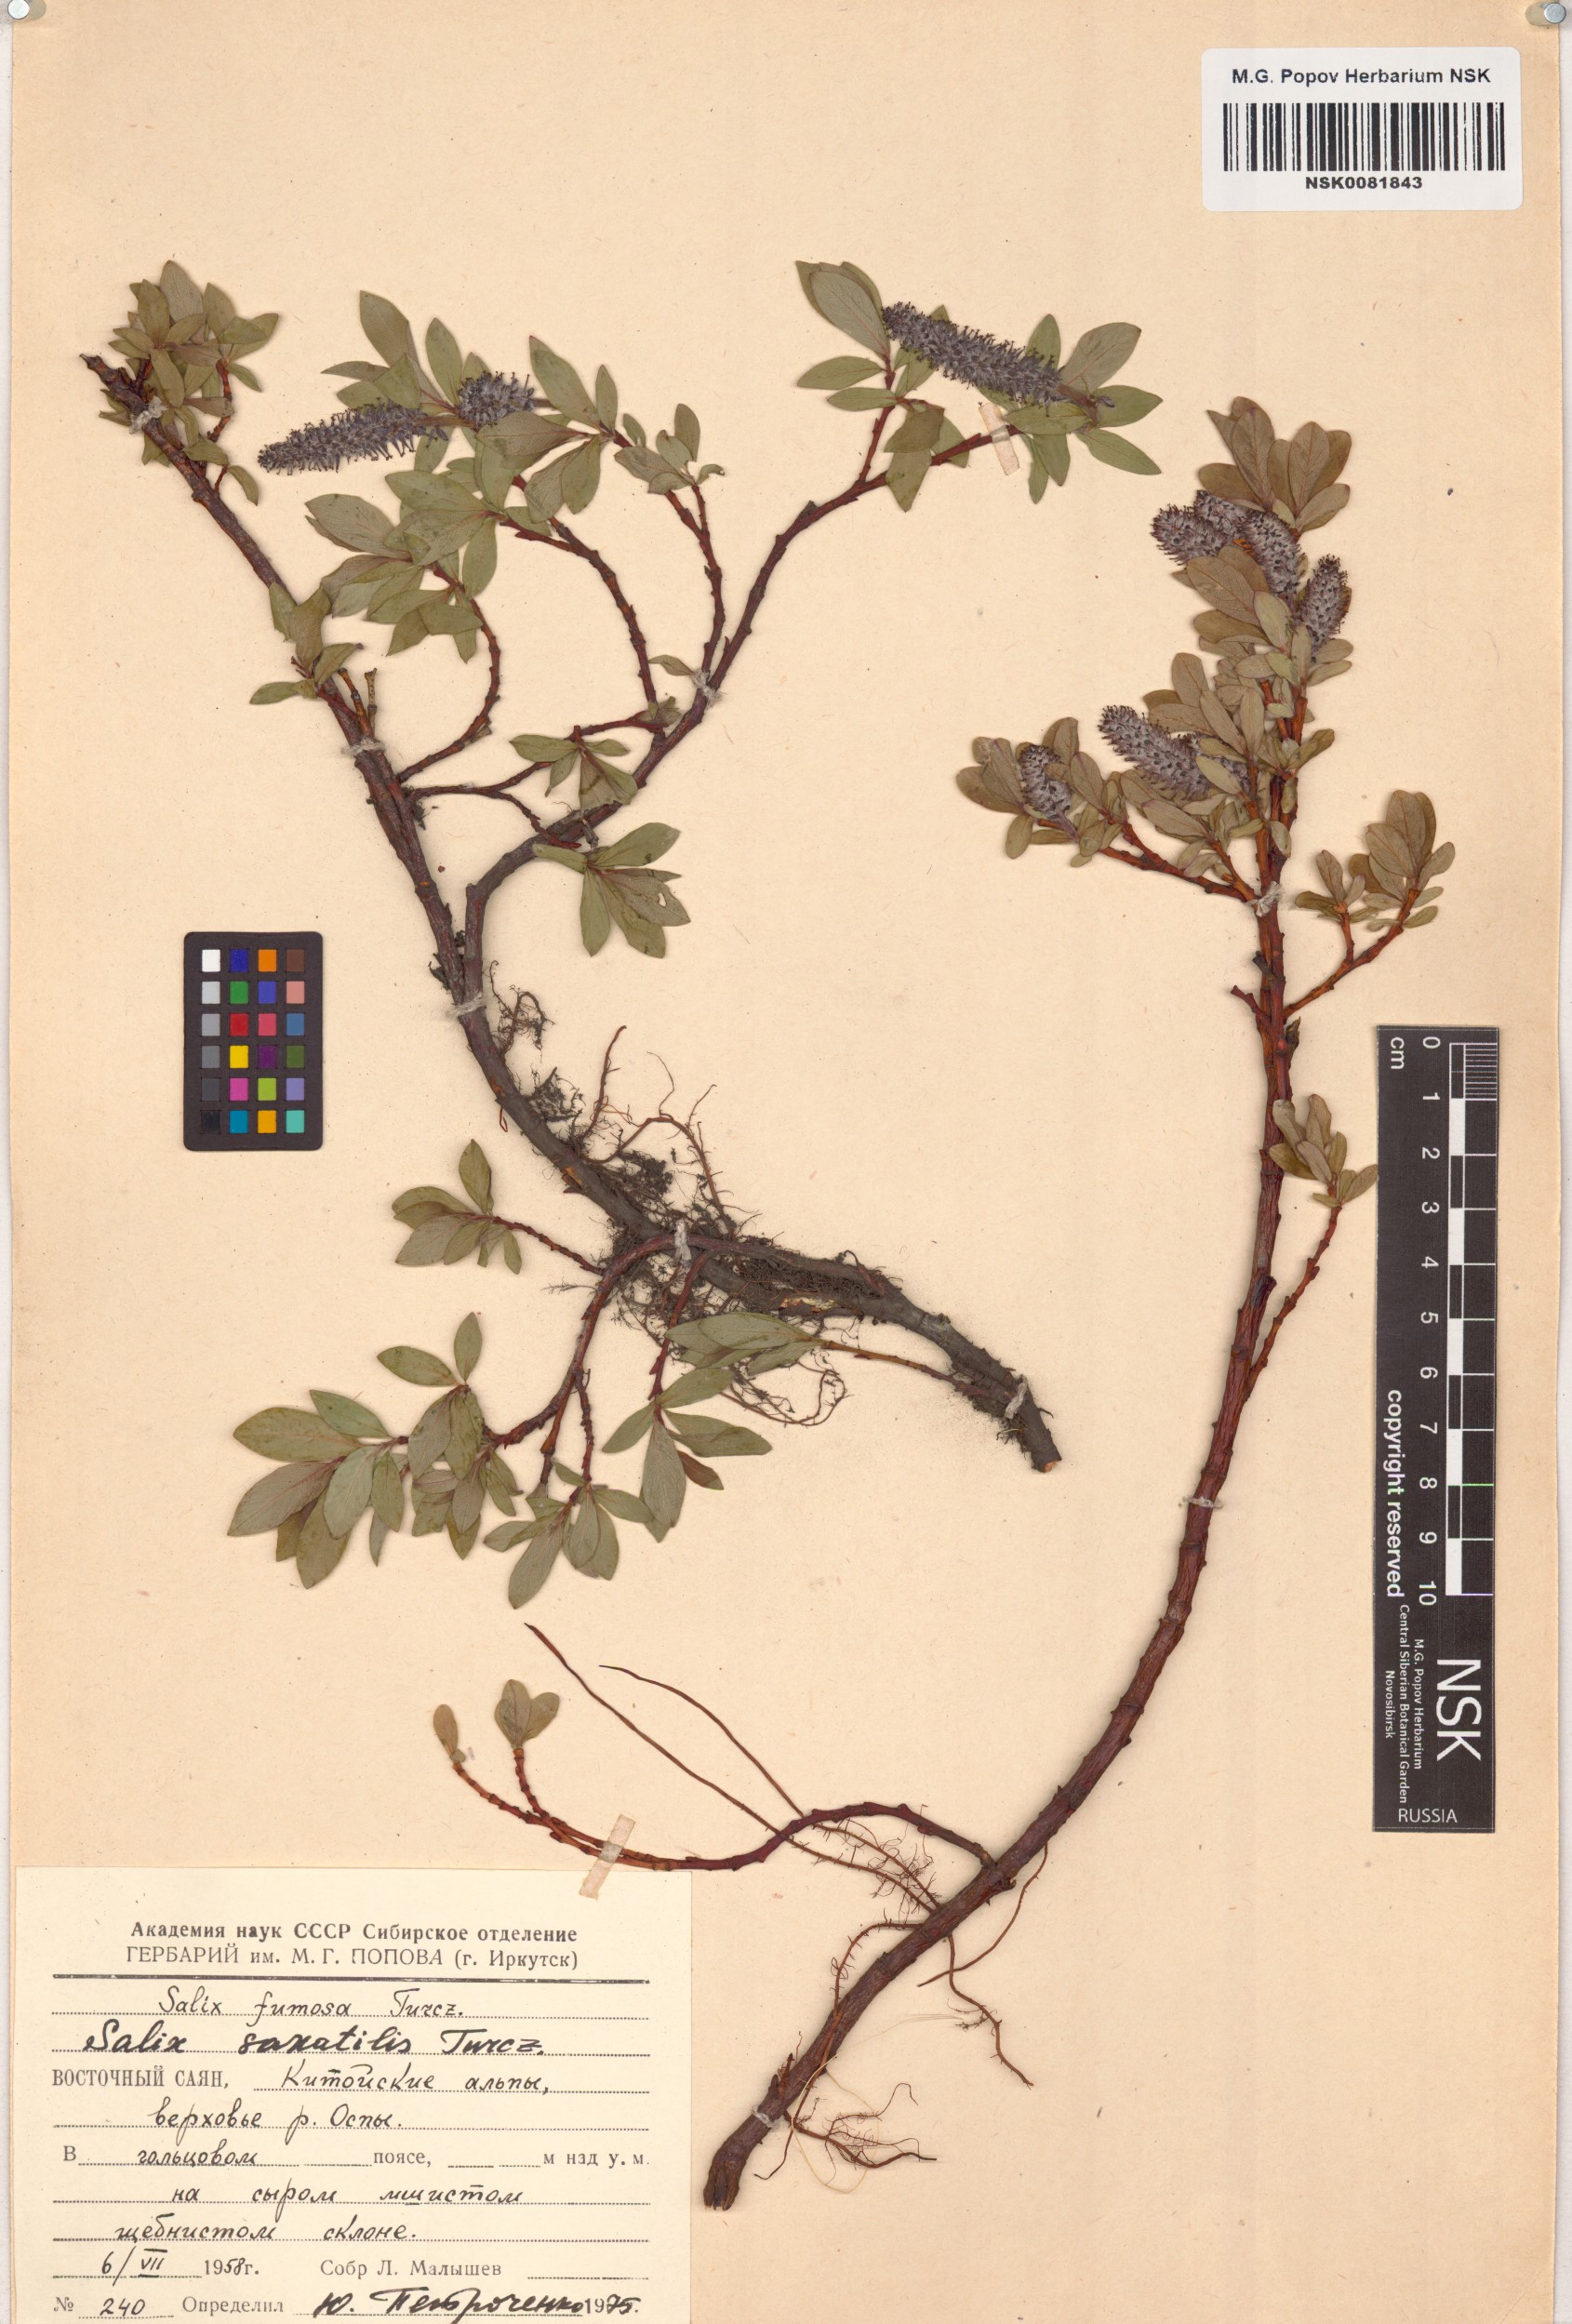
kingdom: Plantae
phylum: Tracheophyta
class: Magnoliopsida
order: Malpighiales
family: Salicaceae
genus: Salix
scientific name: Salix saxatilis
